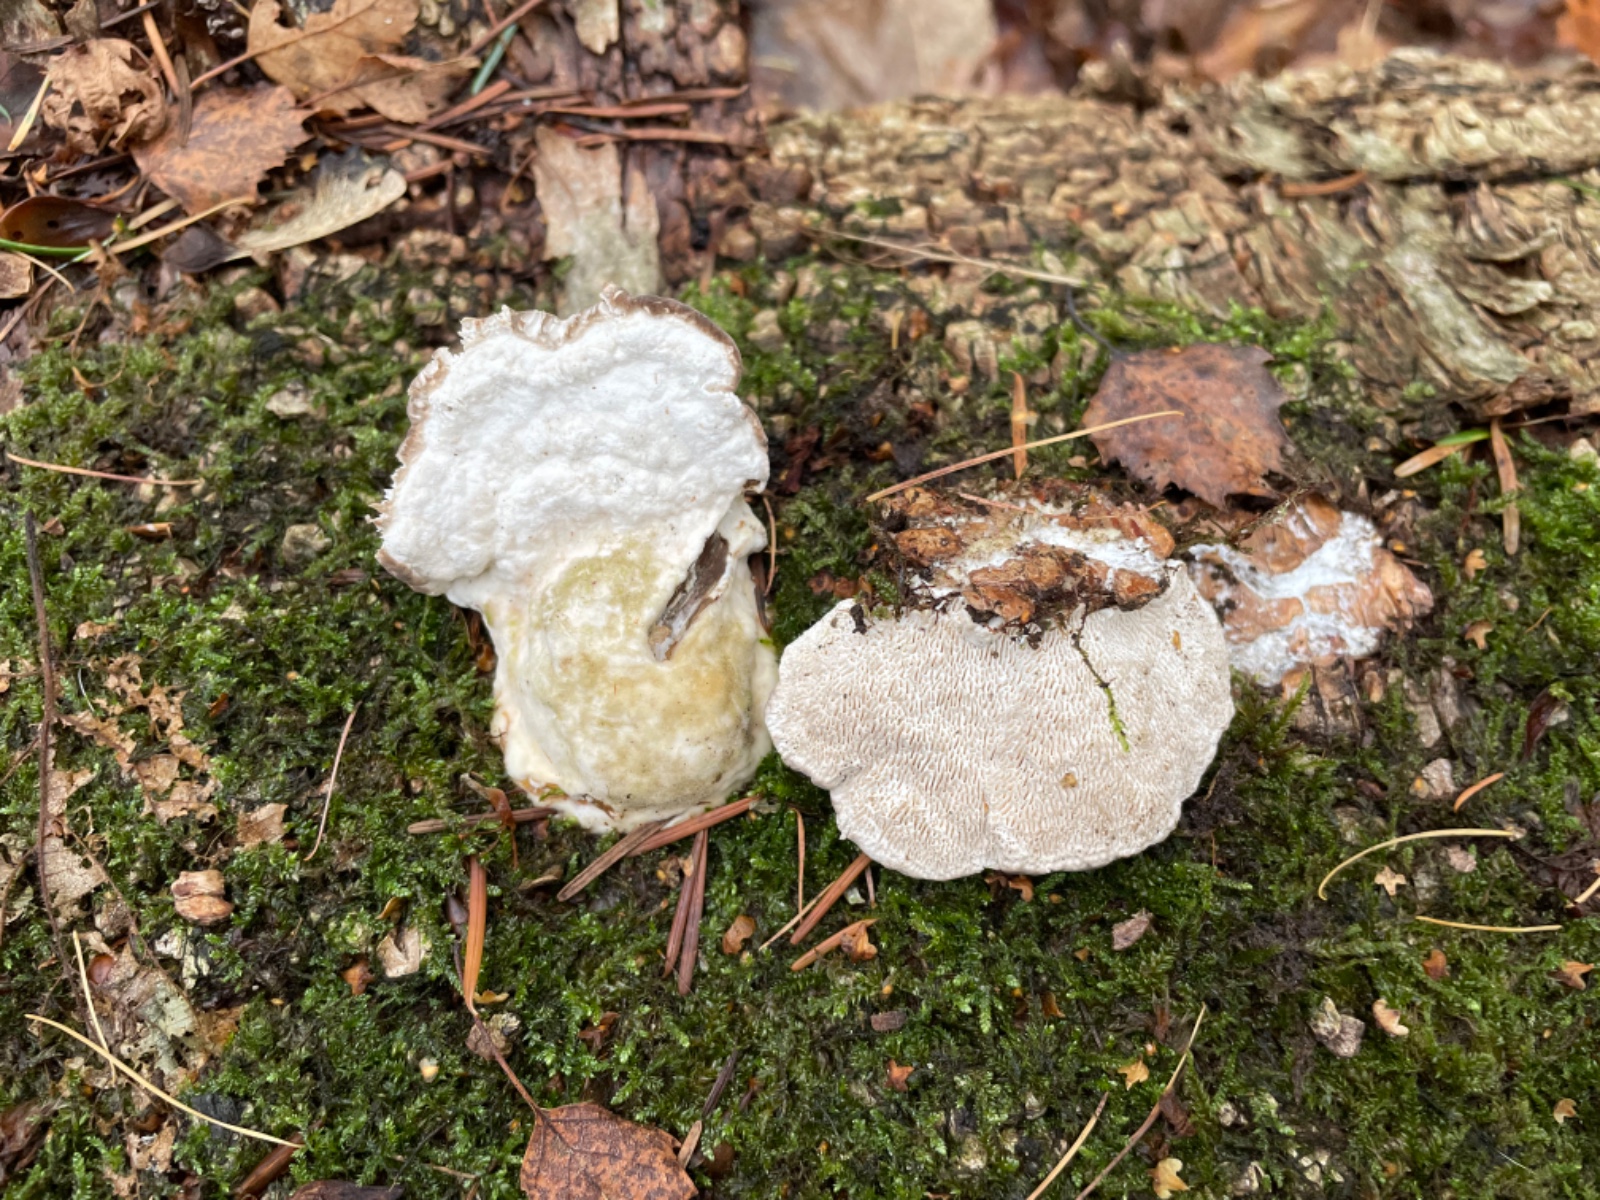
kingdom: Fungi
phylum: Basidiomycota
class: Agaricomycetes
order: Polyporales
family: Polyporaceae
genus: Trametes
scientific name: Trametes gibbosa
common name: puklet læderporesvamp
